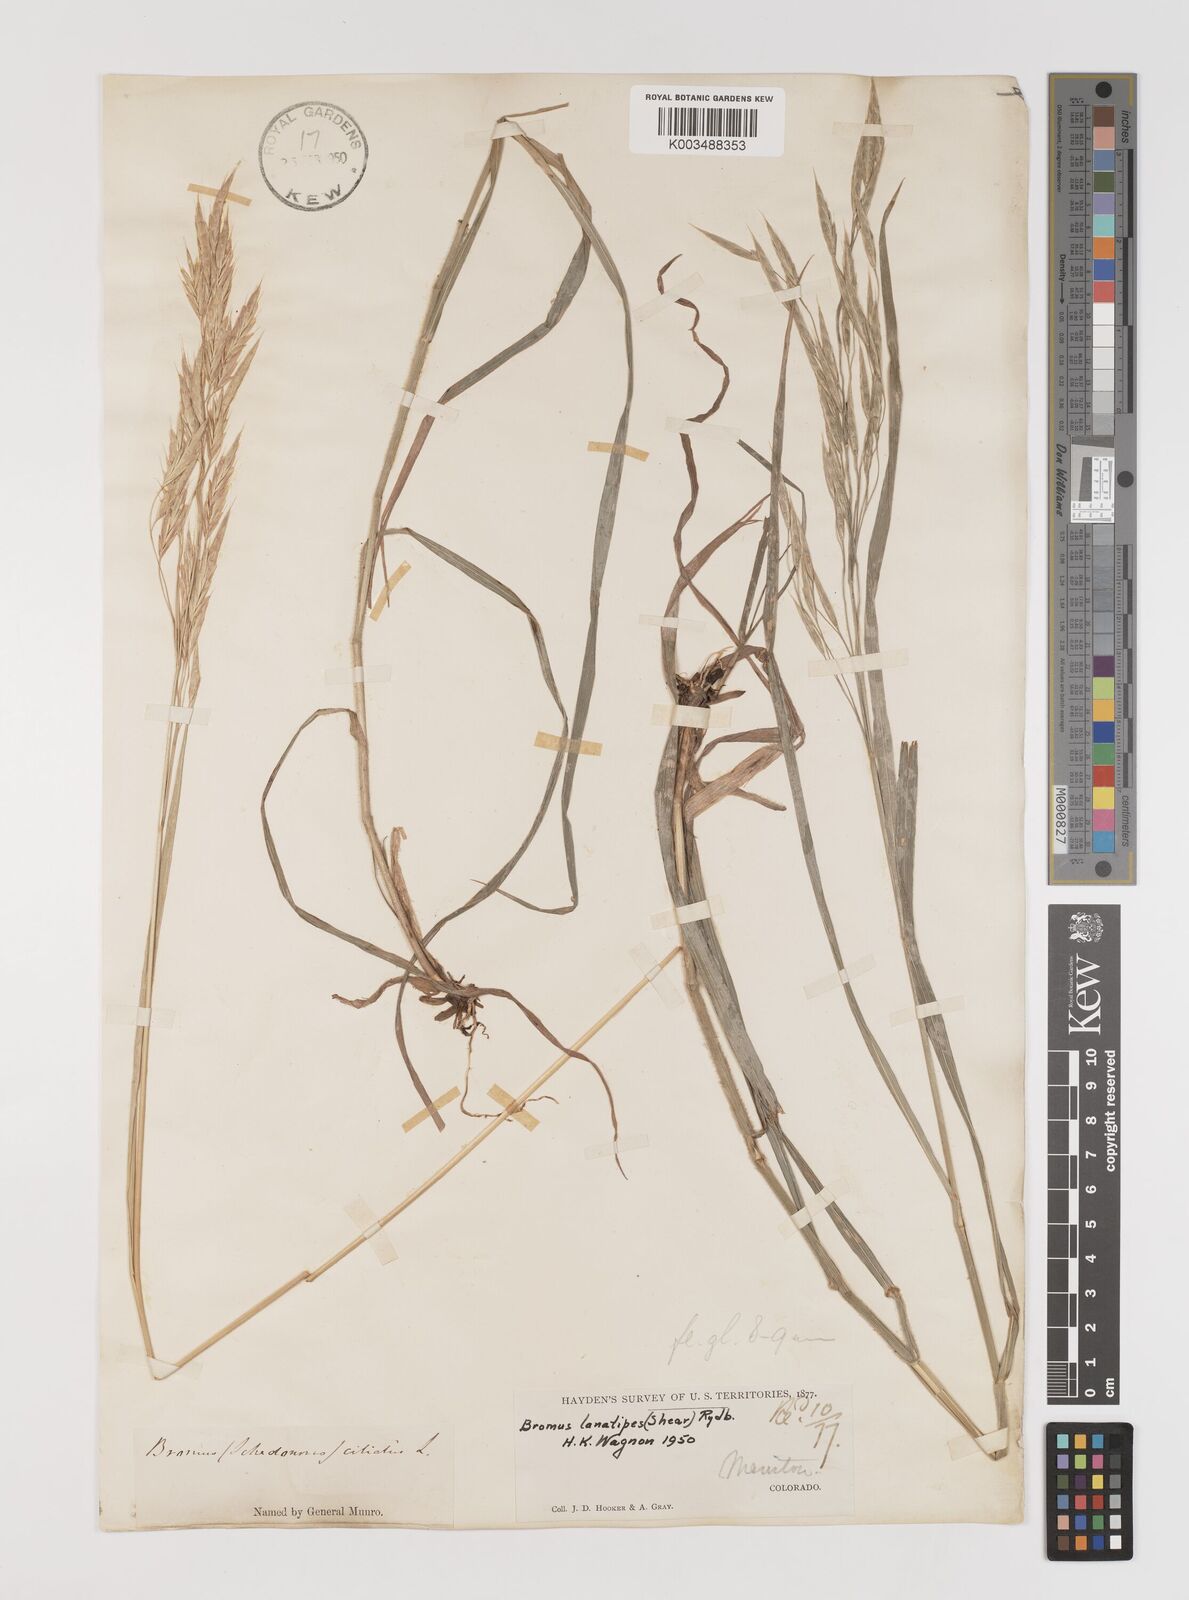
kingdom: Plantae
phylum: Tracheophyta
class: Liliopsida
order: Poales
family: Poaceae
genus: Bromus
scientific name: Bromus lanatipes
